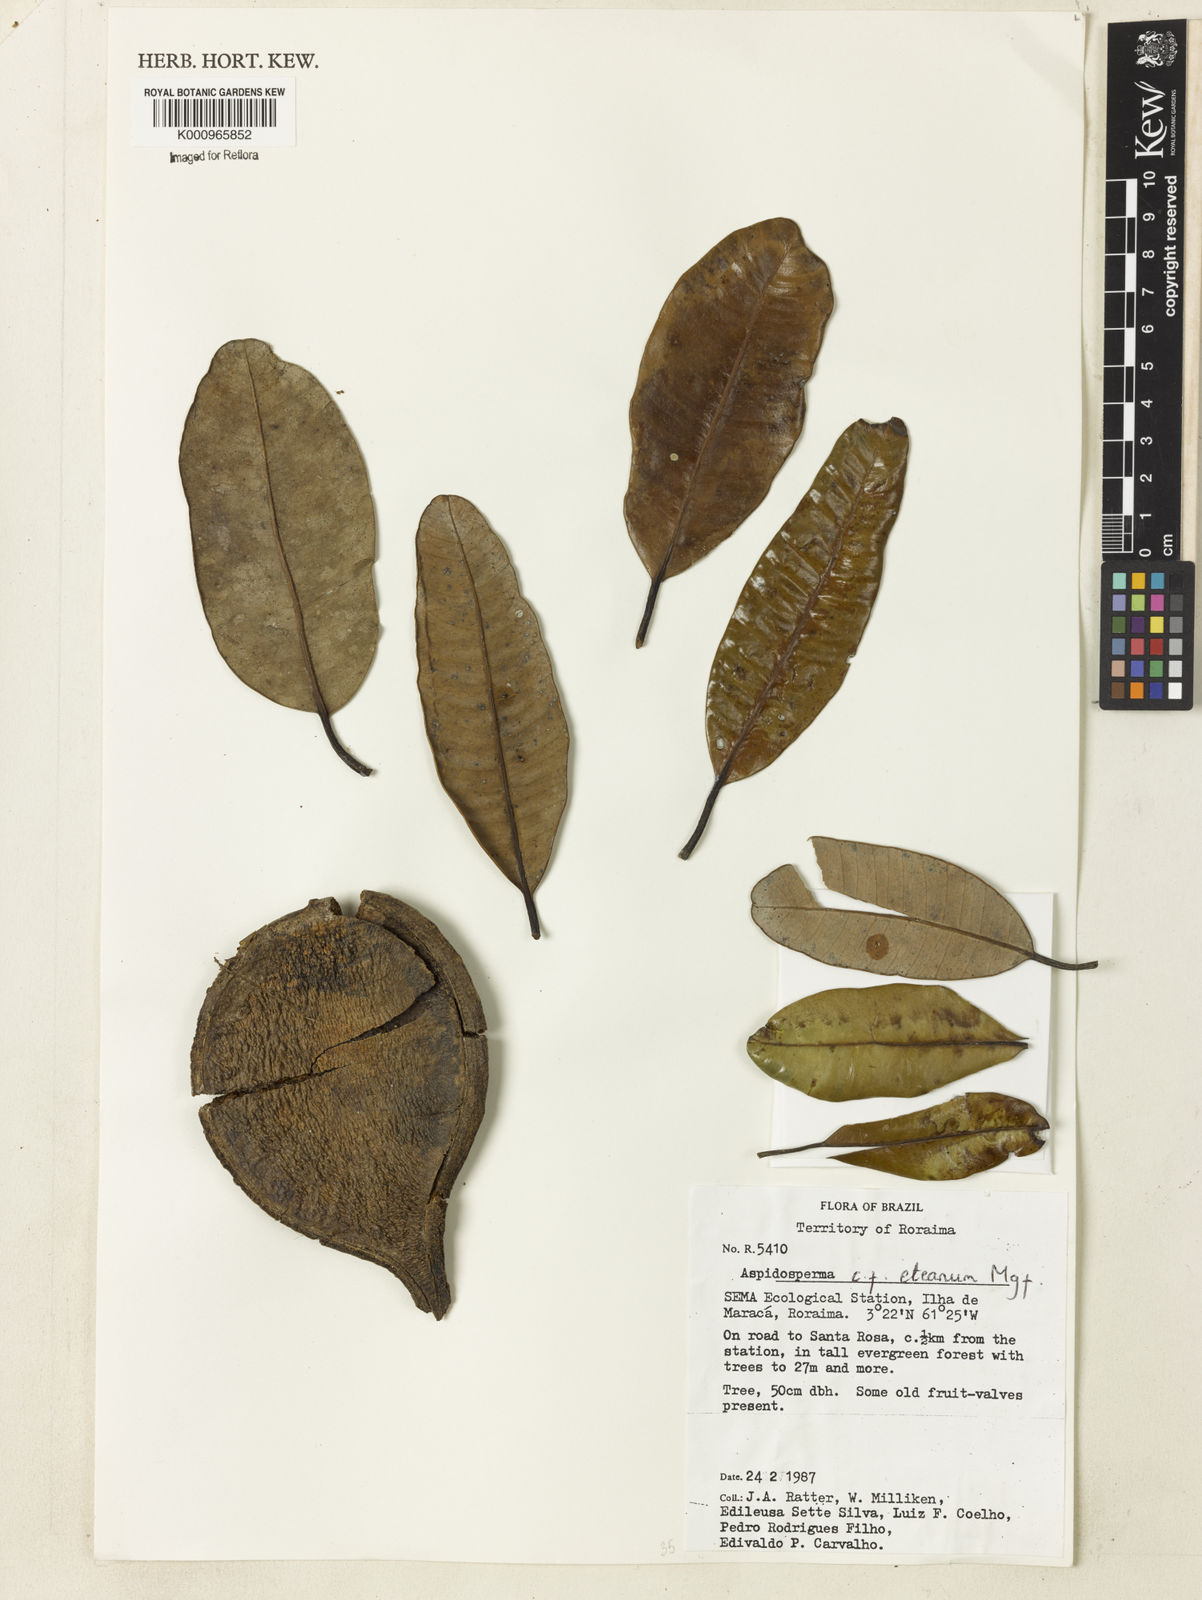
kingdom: Plantae
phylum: Tracheophyta
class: Magnoliopsida
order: Gentianales
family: Apocynaceae
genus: Aspidosperma
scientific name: Aspidosperma eteanum
